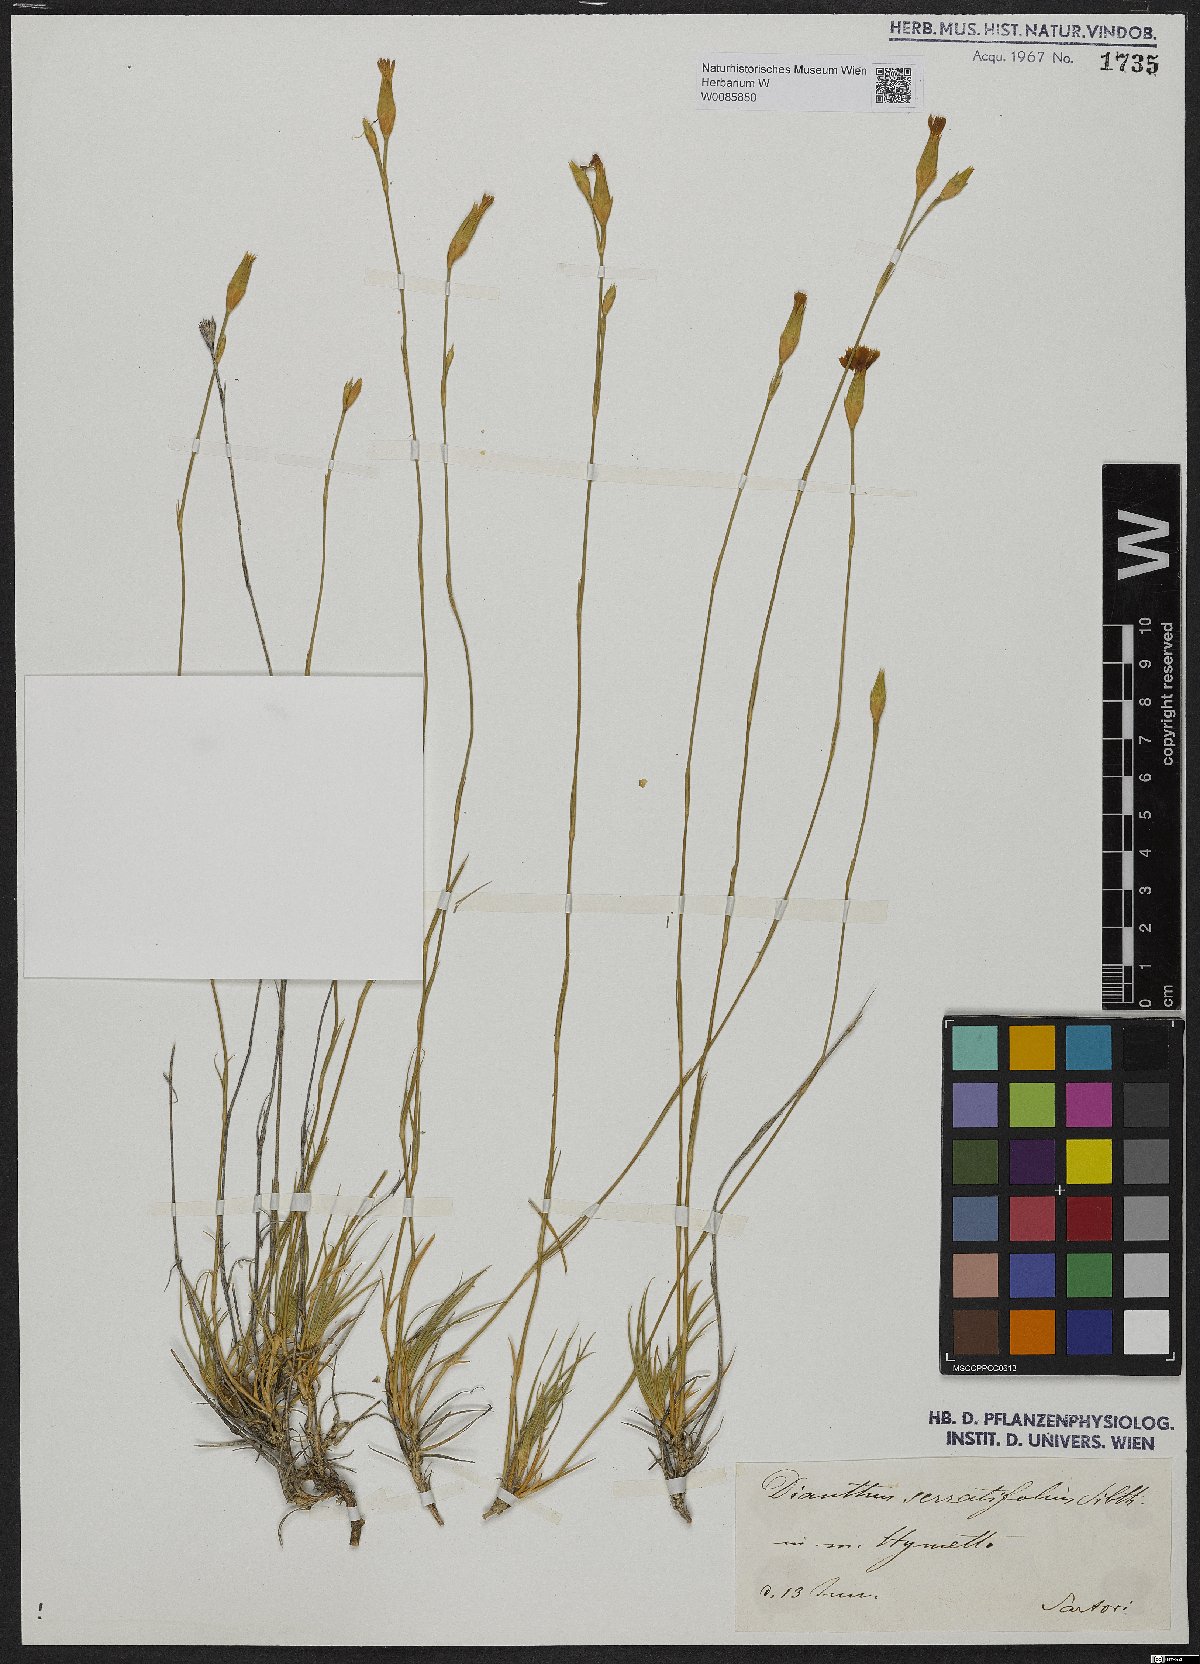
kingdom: Plantae
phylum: Tracheophyta
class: Magnoliopsida
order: Caryophyllales
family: Caryophyllaceae
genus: Dianthus
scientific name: Dianthus serratifolius
